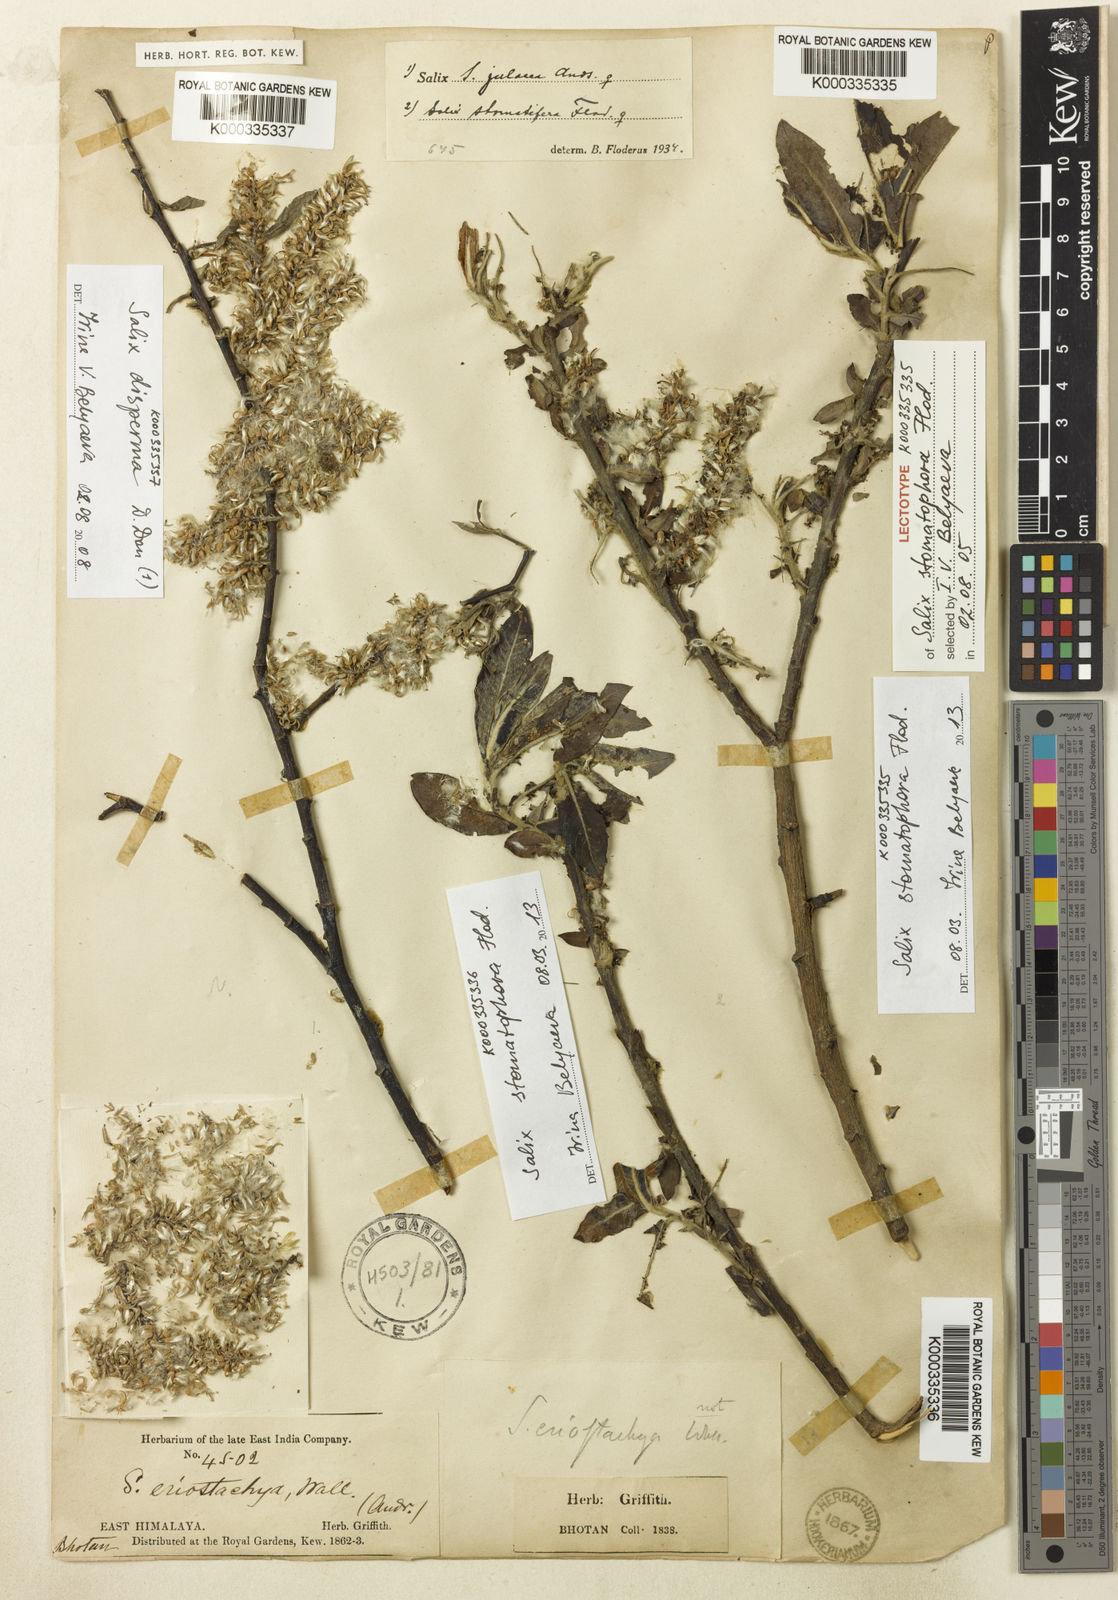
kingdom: Plantae
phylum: Tracheophyta
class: Magnoliopsida
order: Malpighiales
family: Salicaceae
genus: Salix
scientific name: Salix stomatophora
